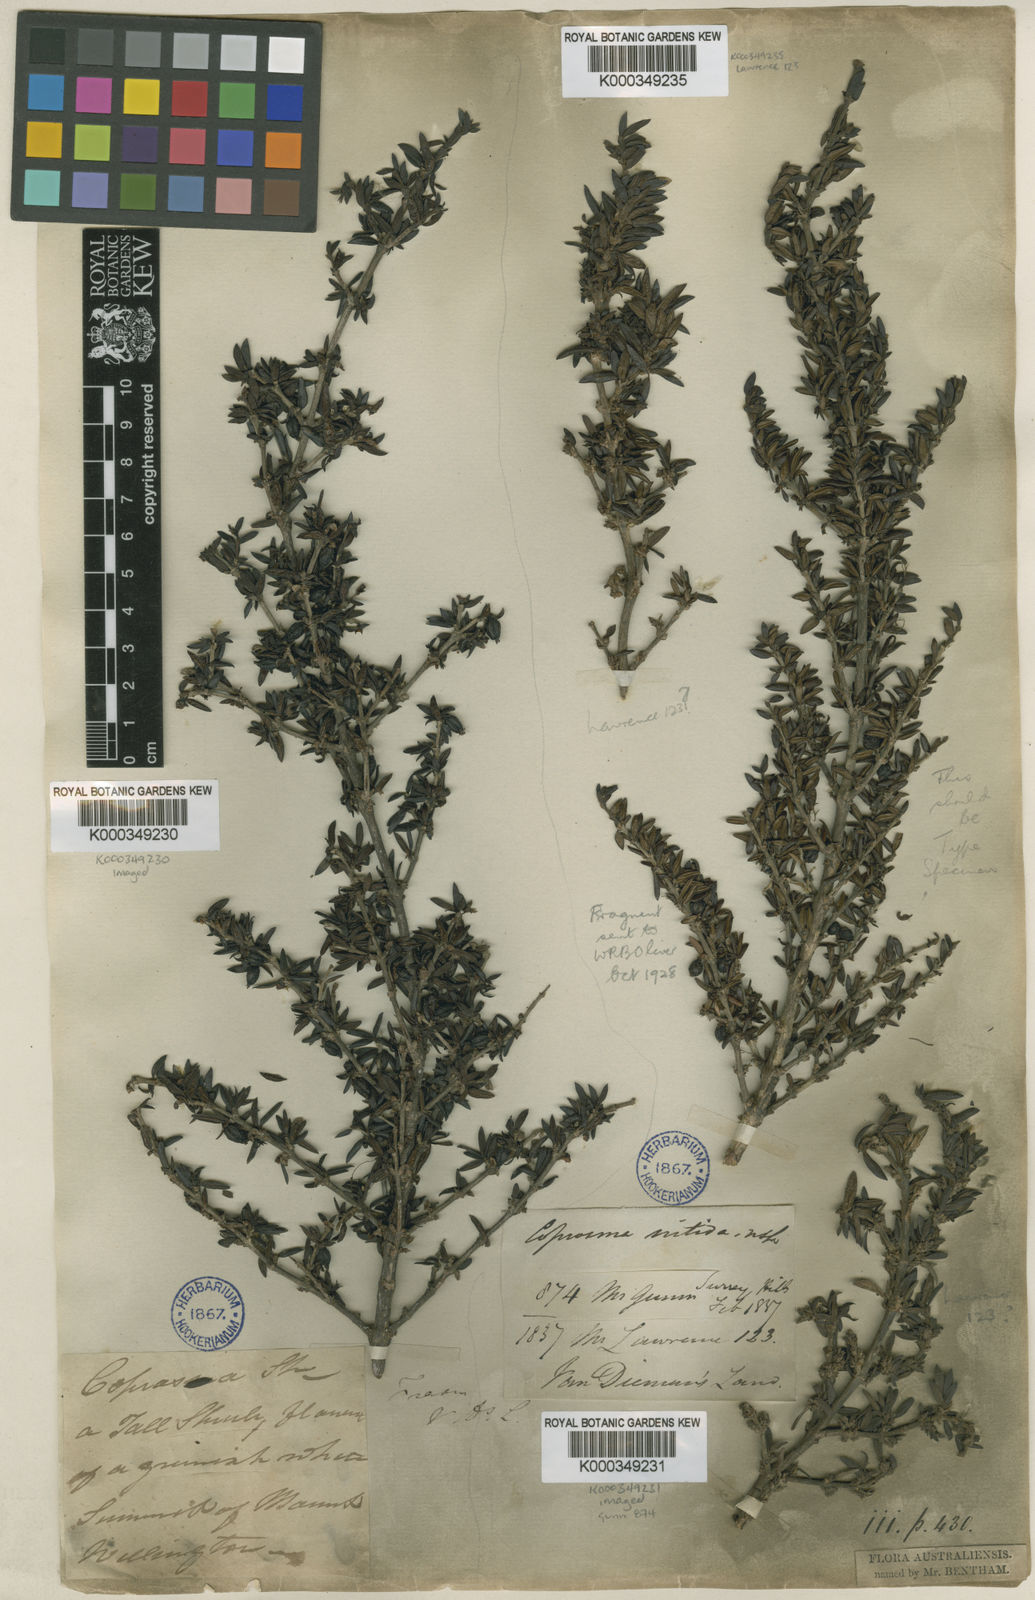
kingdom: Plantae
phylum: Tracheophyta
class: Magnoliopsida
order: Gentianales
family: Rubiaceae
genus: Coprosma
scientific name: Coprosma nitida
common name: Shining coprosma
